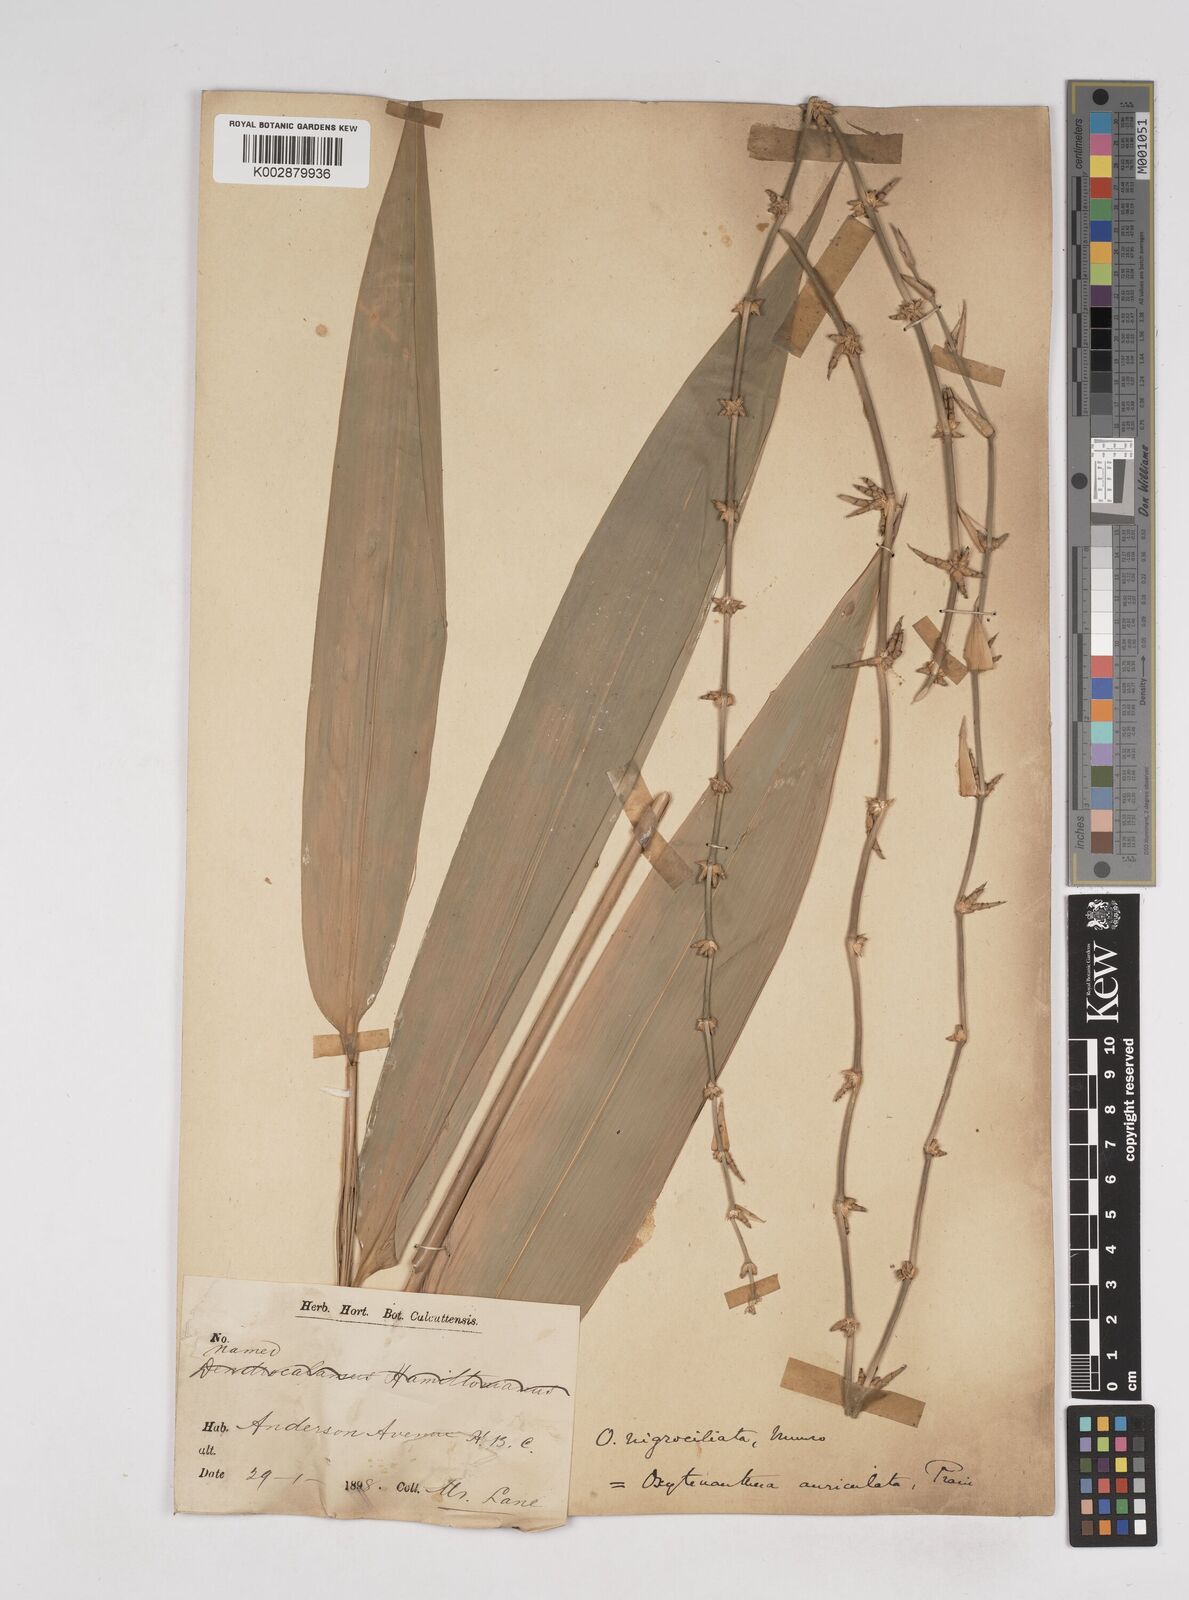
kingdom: Plantae
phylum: Tracheophyta
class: Liliopsida
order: Poales
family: Poaceae
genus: Gigantochloa
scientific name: Gigantochloa nigrociliata
